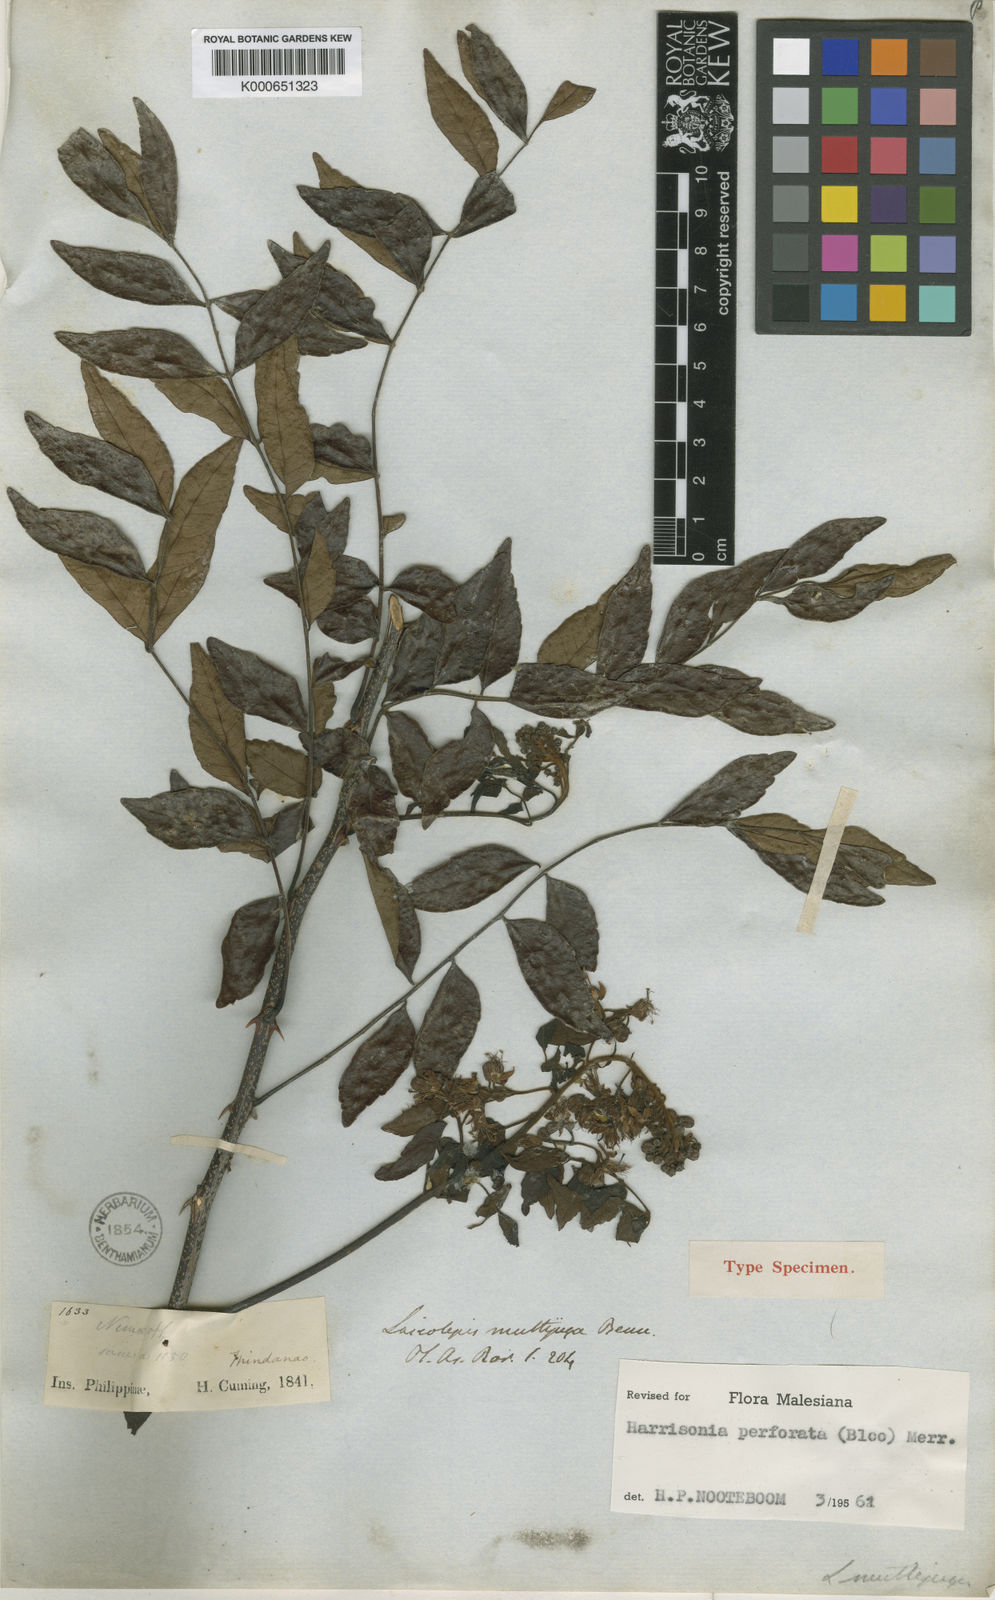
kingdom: Plantae
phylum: Tracheophyta
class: Magnoliopsida
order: Sapindales
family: Rutaceae
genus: Harrisonia
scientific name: Harrisonia perforata
